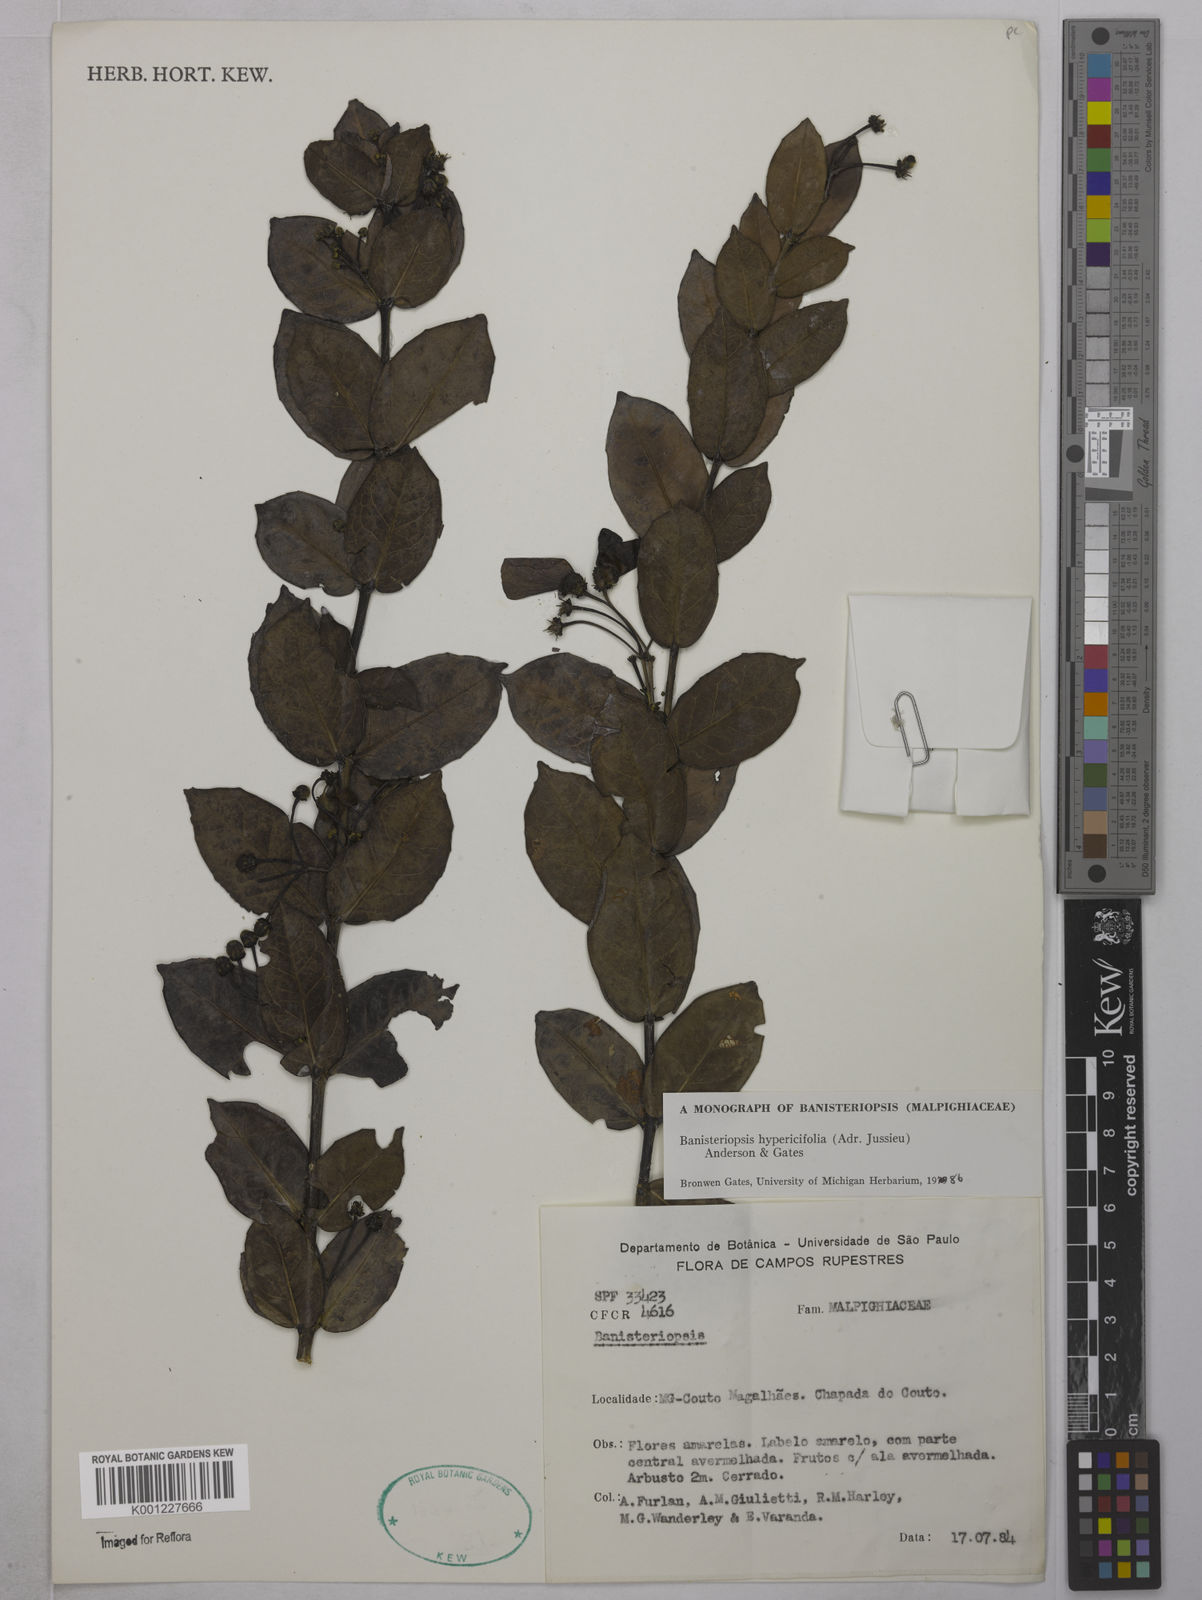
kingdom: Plantae
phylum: Tracheophyta
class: Magnoliopsida
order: Malpighiales
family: Malpighiaceae
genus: Diplopterys
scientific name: Diplopterys hypericifolia
